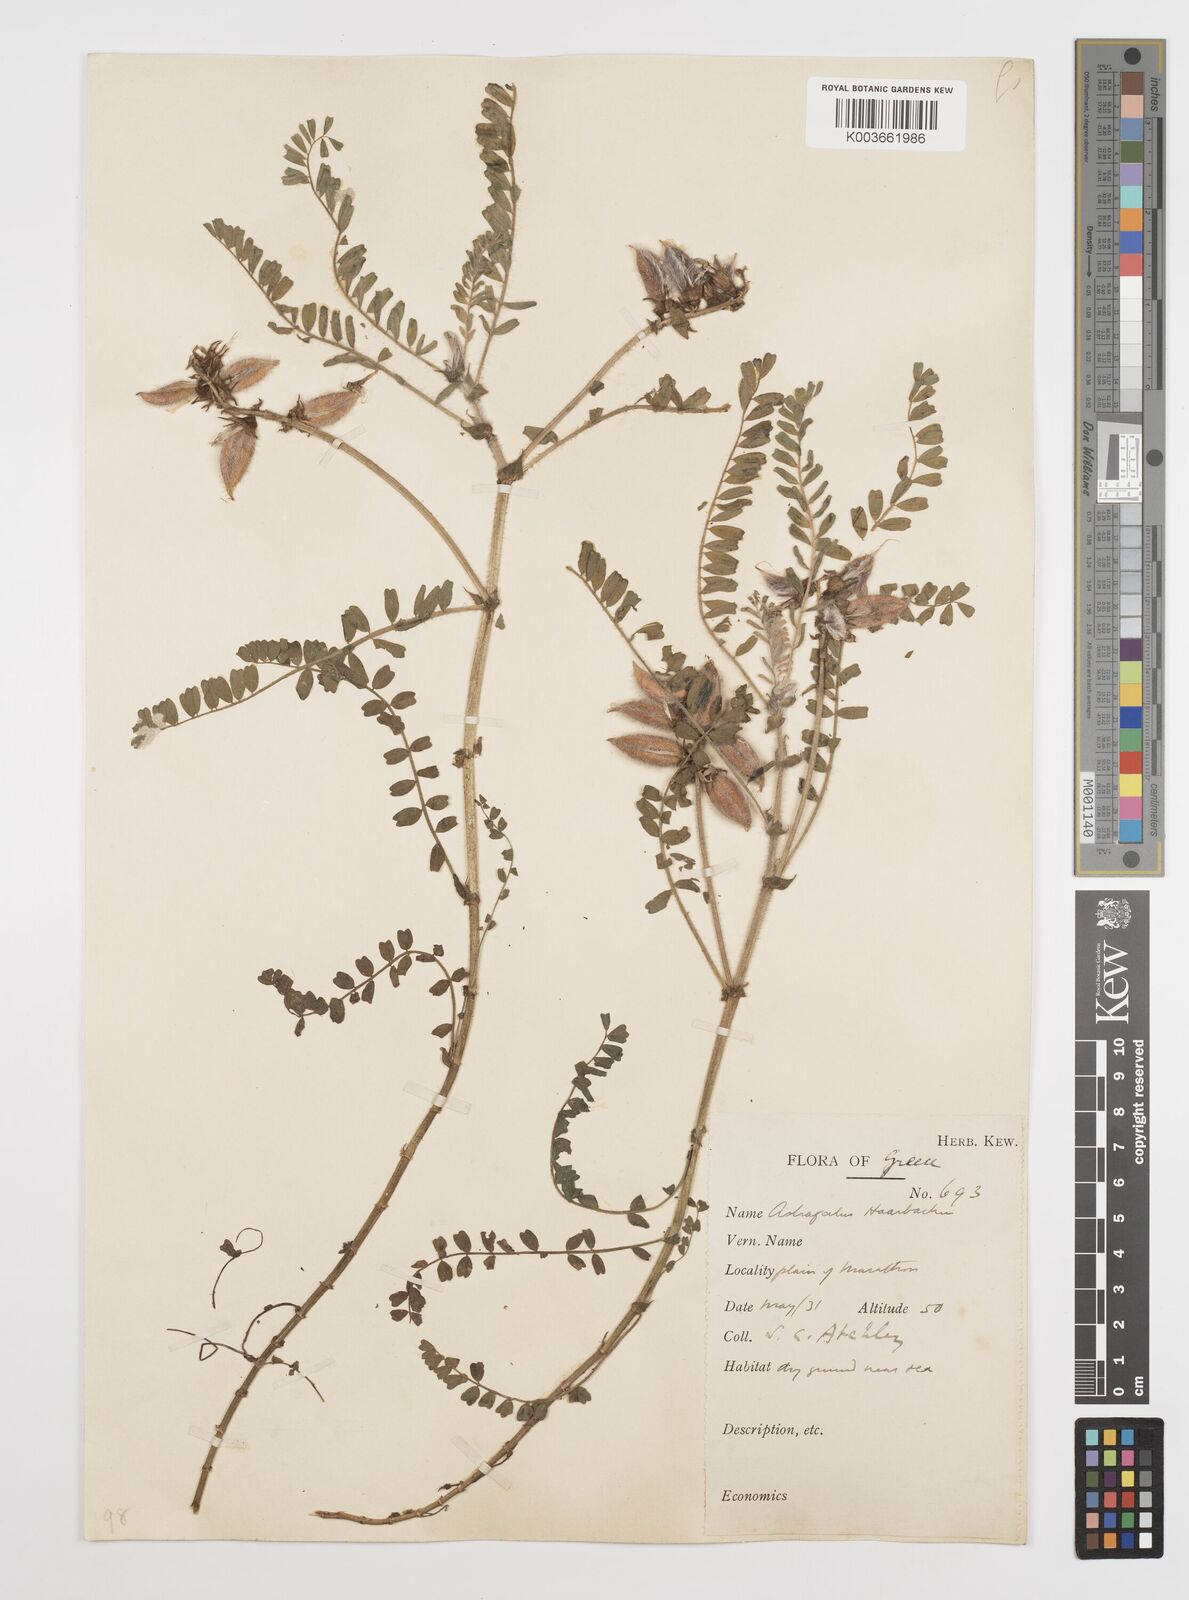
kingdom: Plantae
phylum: Tracheophyta
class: Magnoliopsida
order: Fabales
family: Fabaceae
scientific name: Fabaceae
